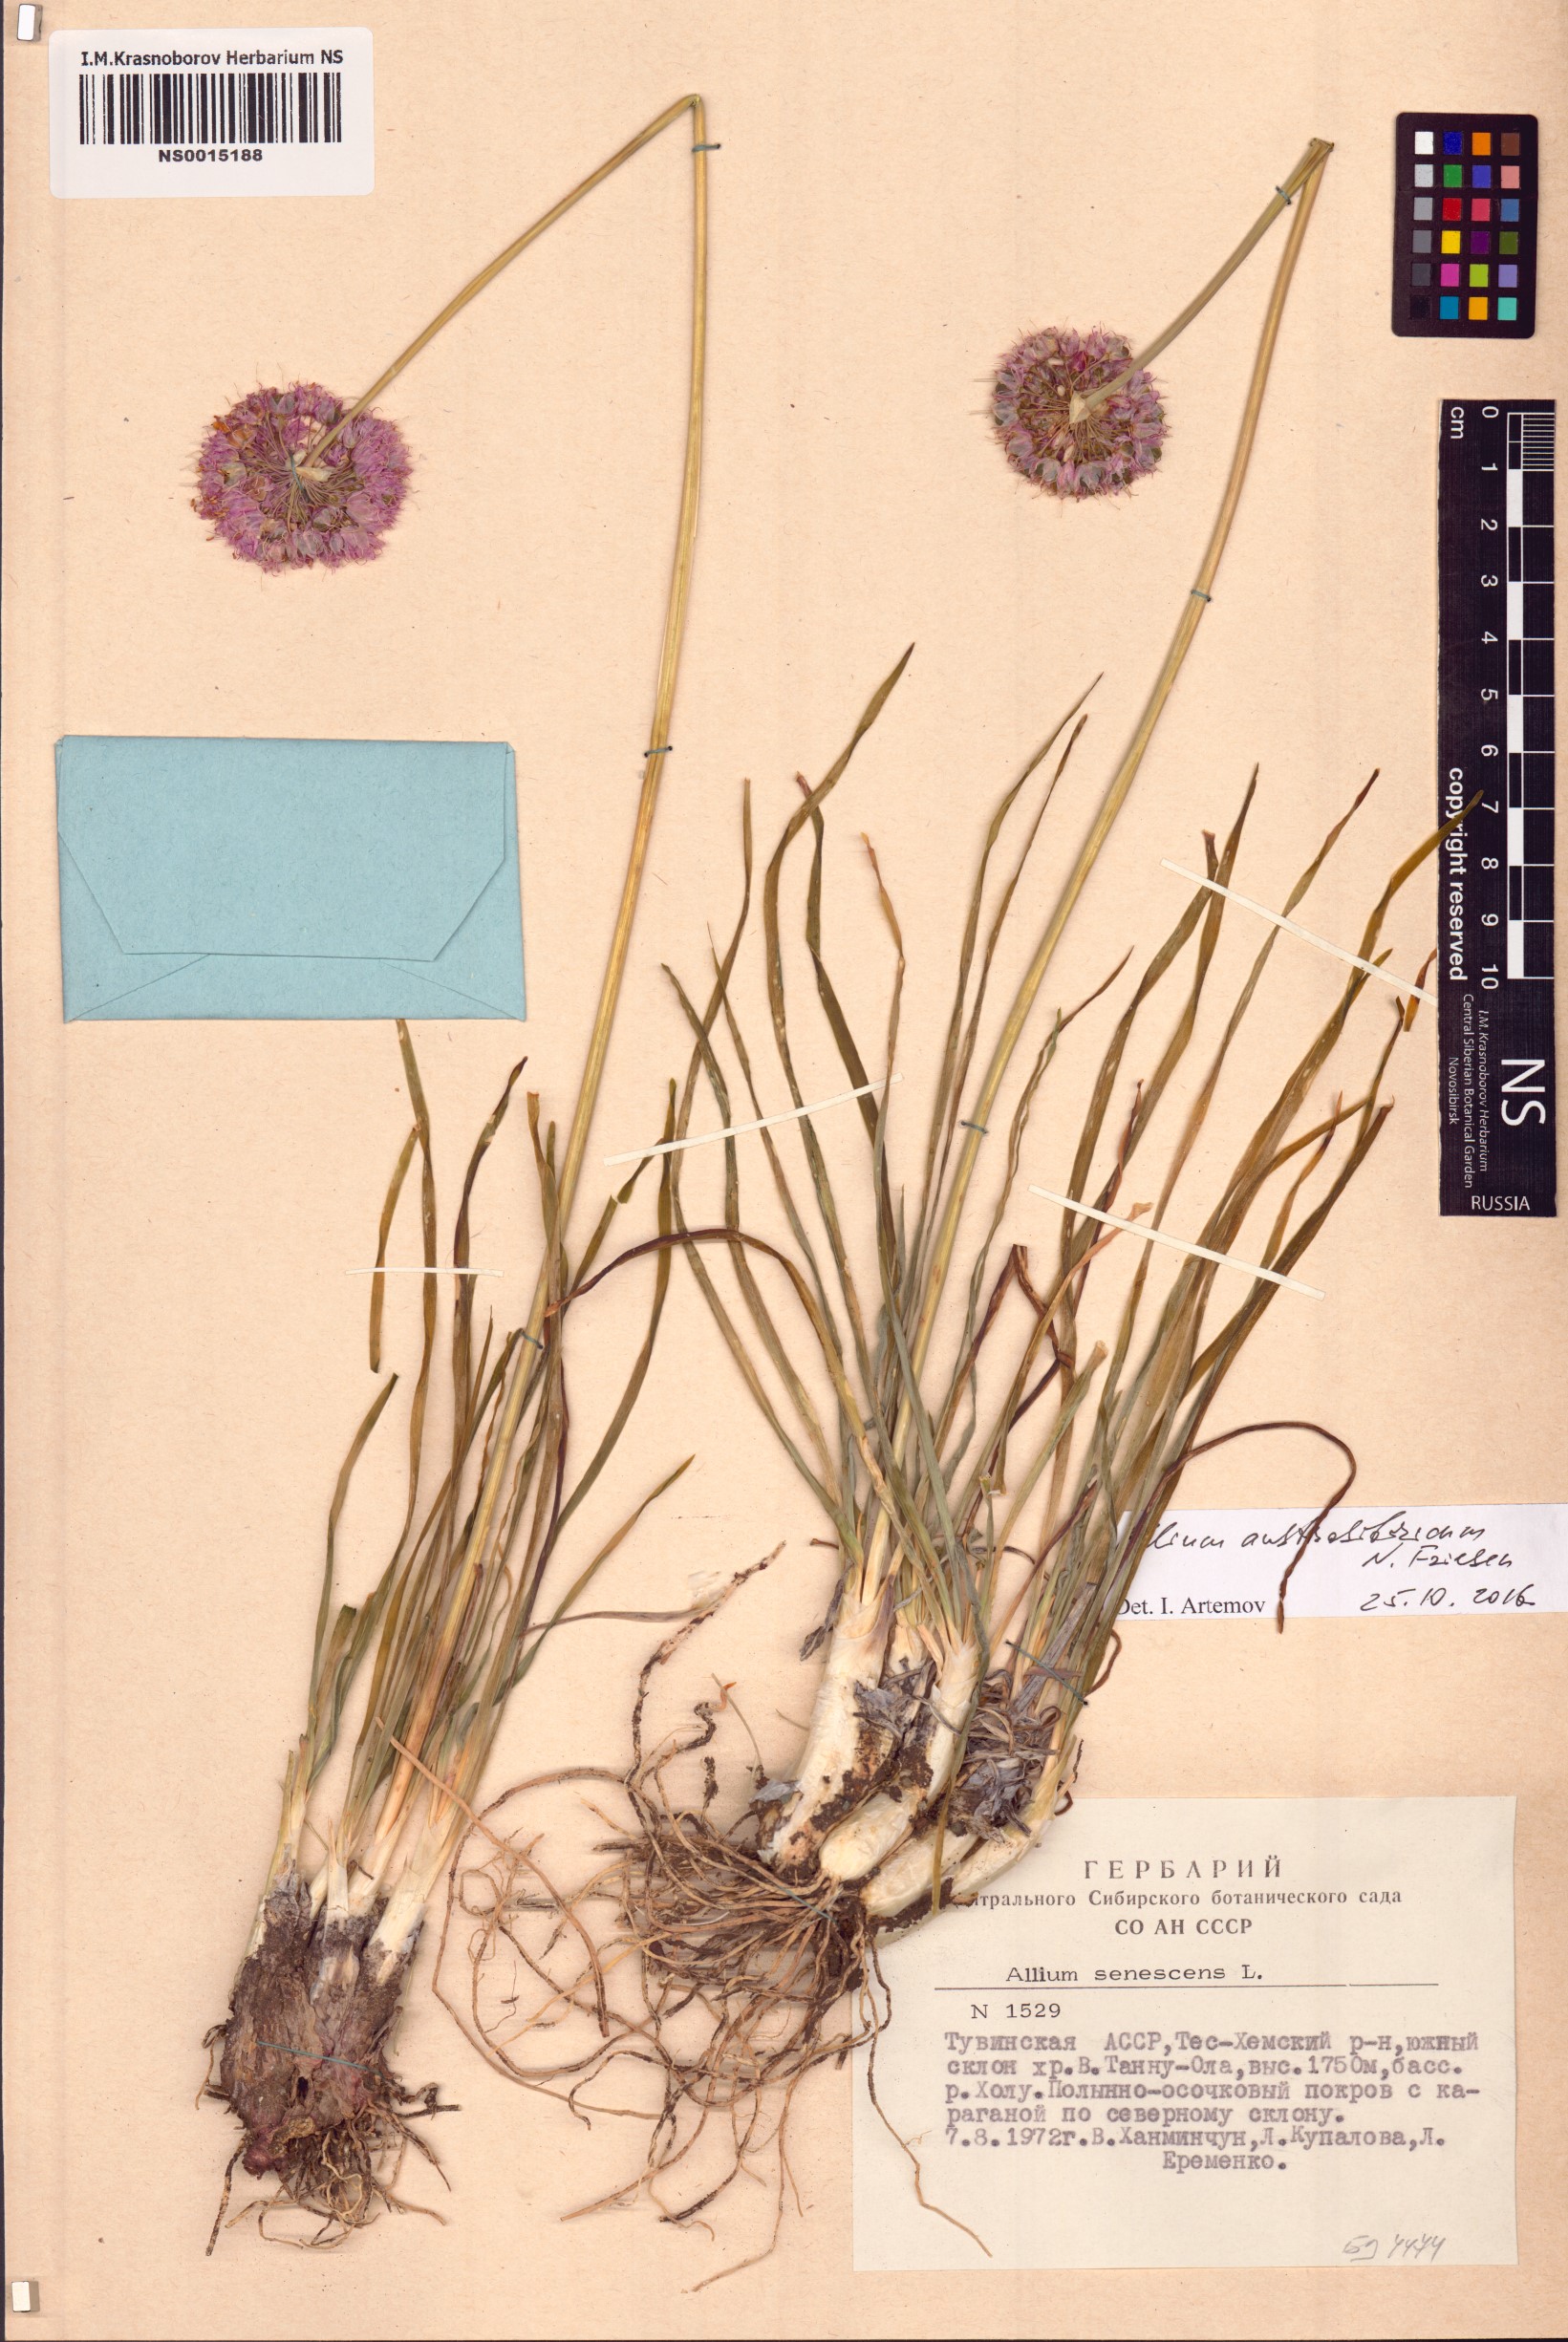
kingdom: Plantae
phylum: Tracheophyta
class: Liliopsida
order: Asparagales
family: Amaryllidaceae
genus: Allium
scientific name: Allium austrosibiricum
